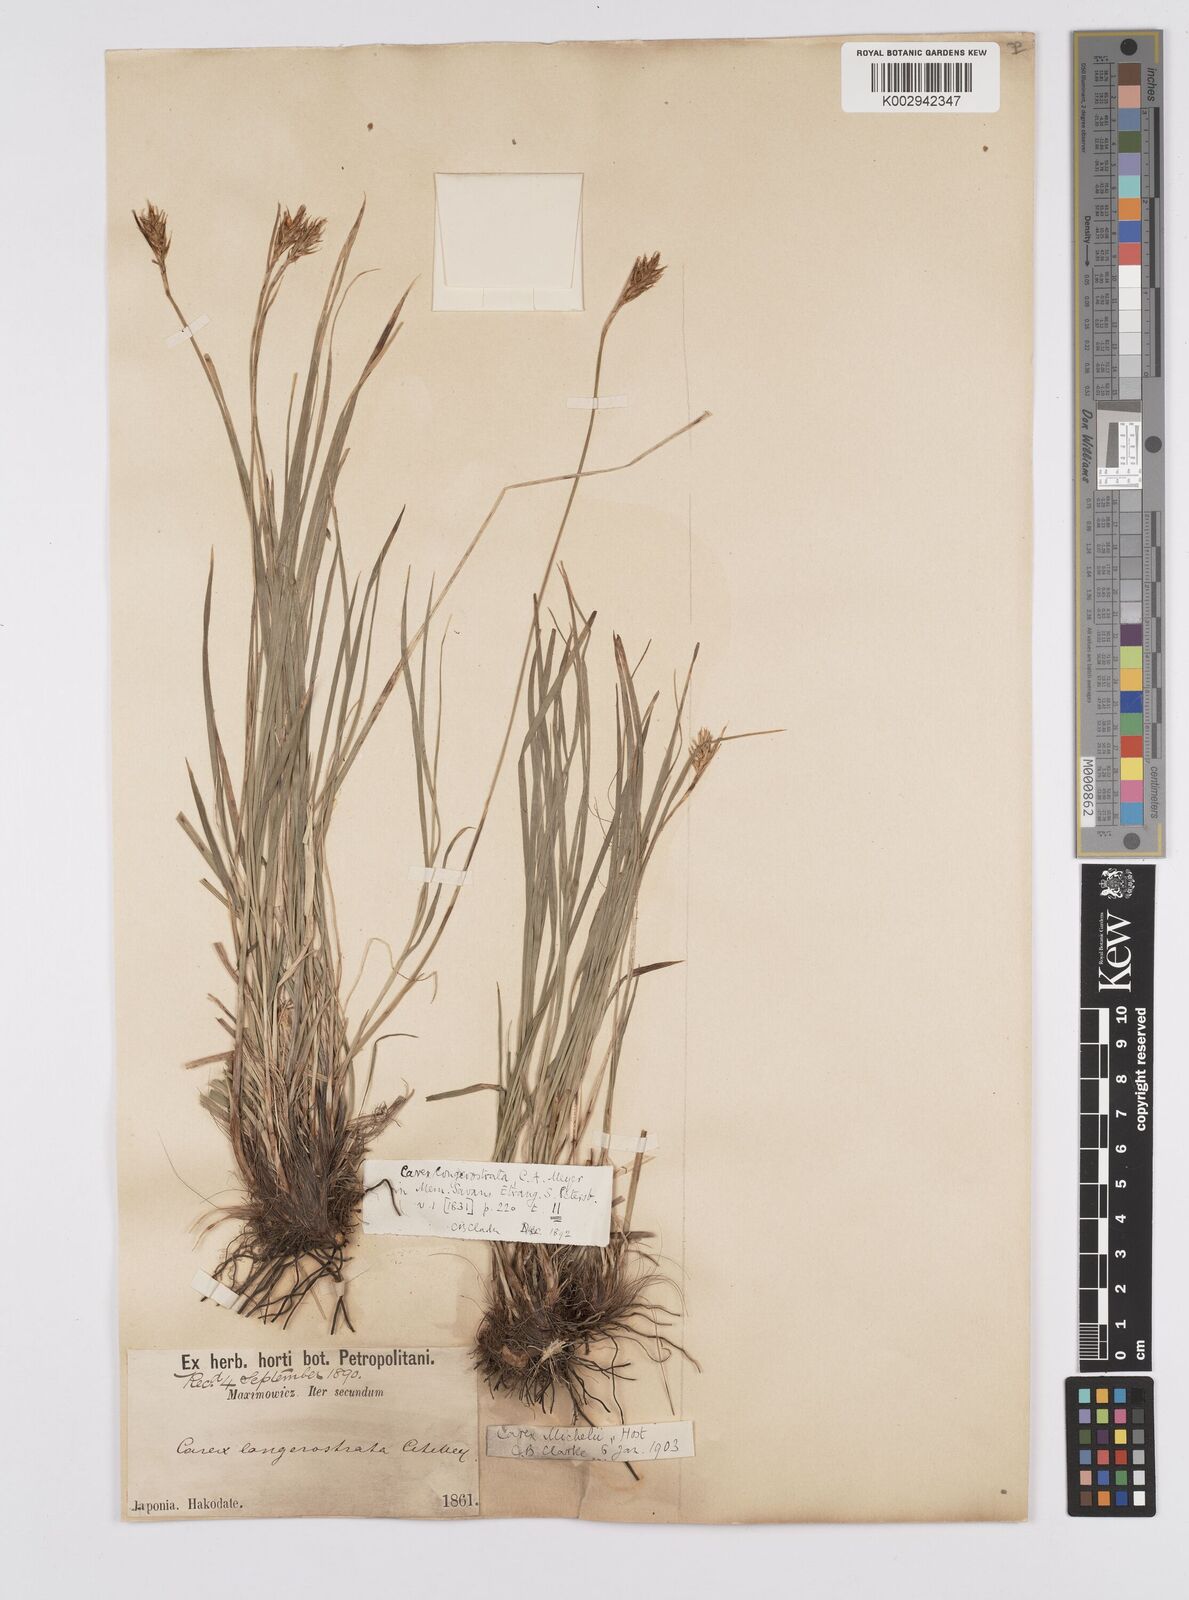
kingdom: Plantae
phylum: Tracheophyta
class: Liliopsida
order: Poales
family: Cyperaceae
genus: Carex
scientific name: Carex michelii
